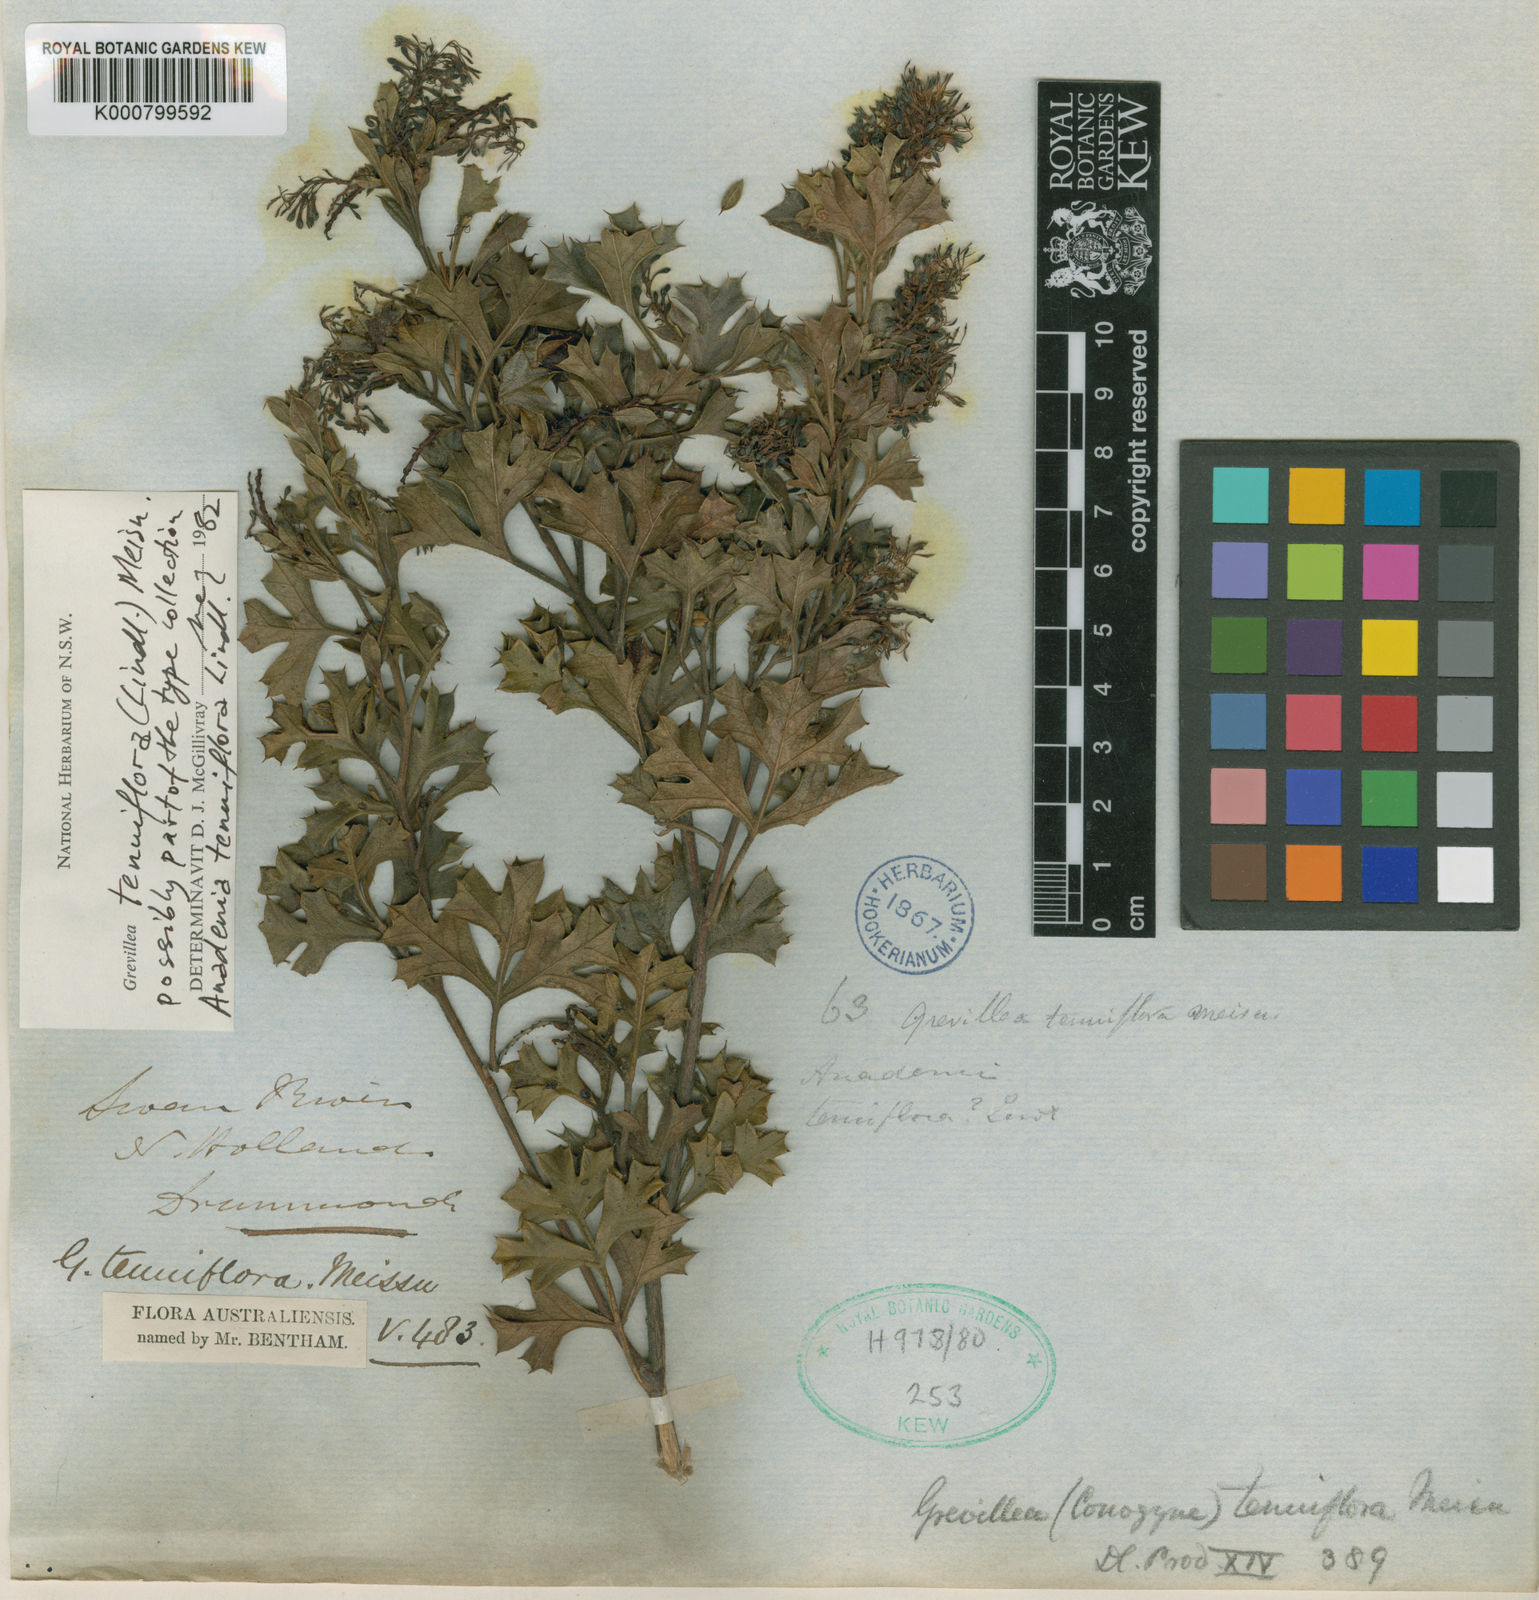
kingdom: Plantae
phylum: Tracheophyta
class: Magnoliopsida
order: Proteales
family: Proteaceae
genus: Grevillea
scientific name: Grevillea tenuiflora
